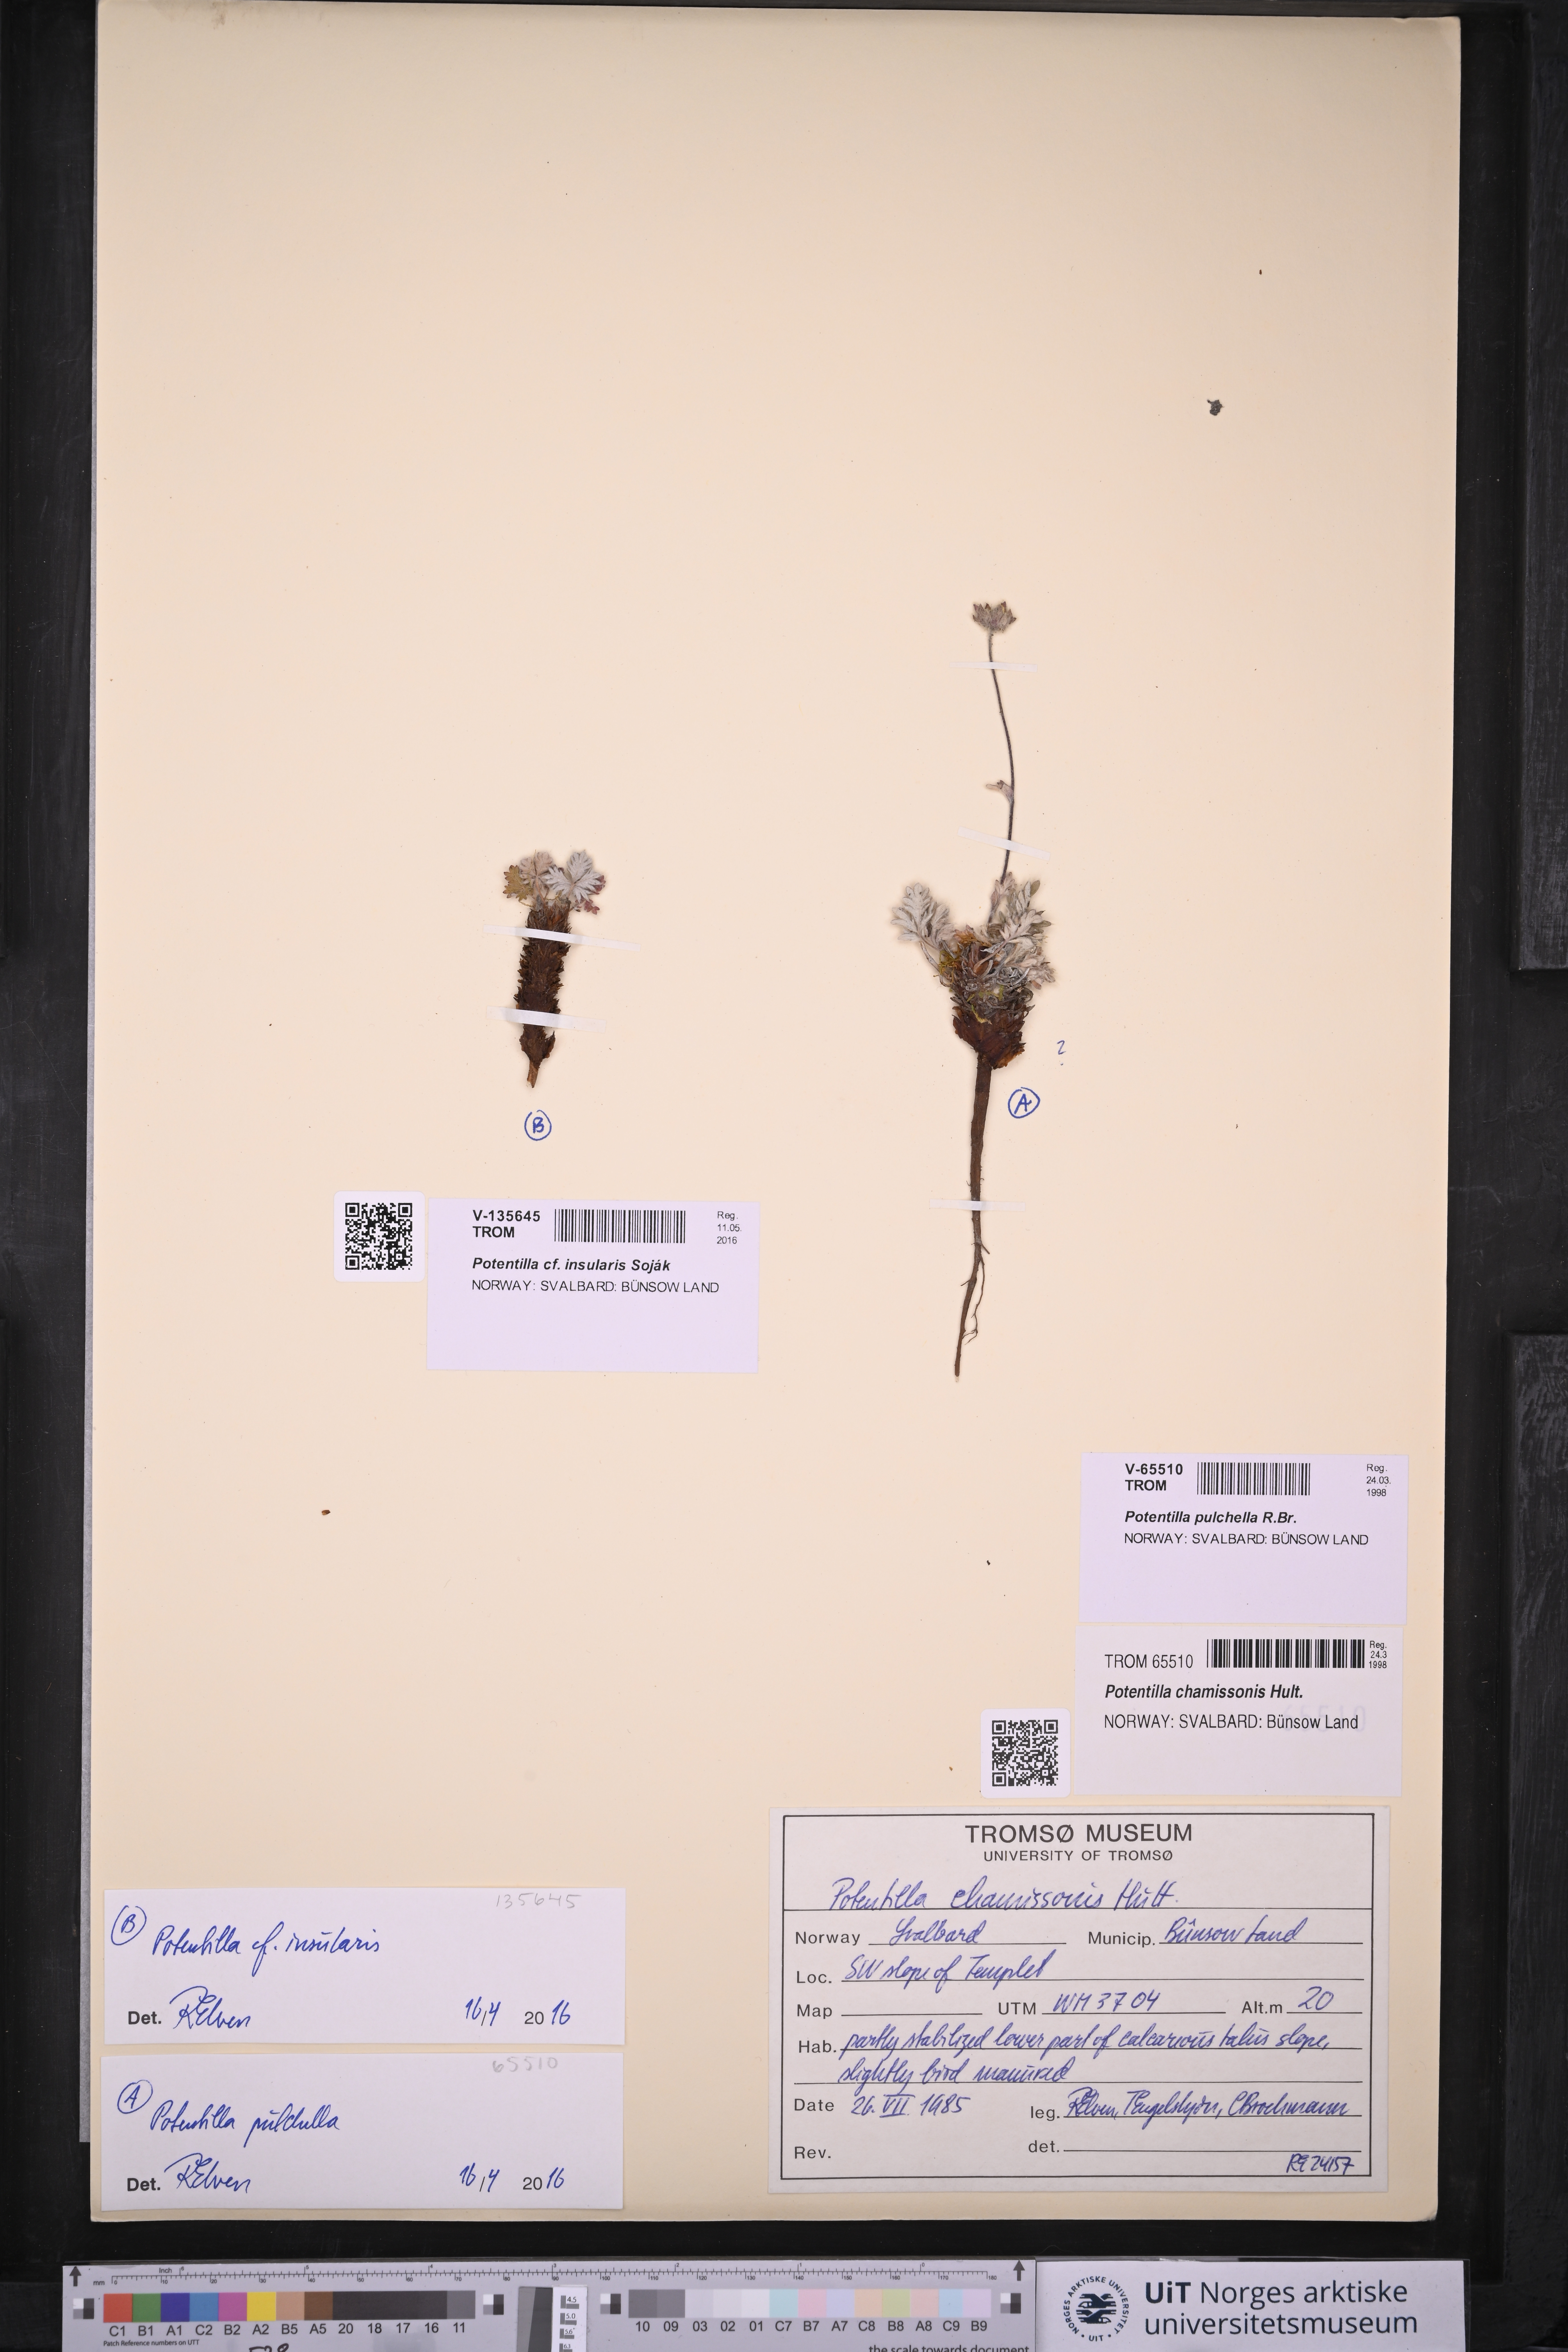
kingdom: Plantae
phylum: Tracheophyta
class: Magnoliopsida
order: Rosales
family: Rosaceae
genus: Potentilla
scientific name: Potentilla insularis
